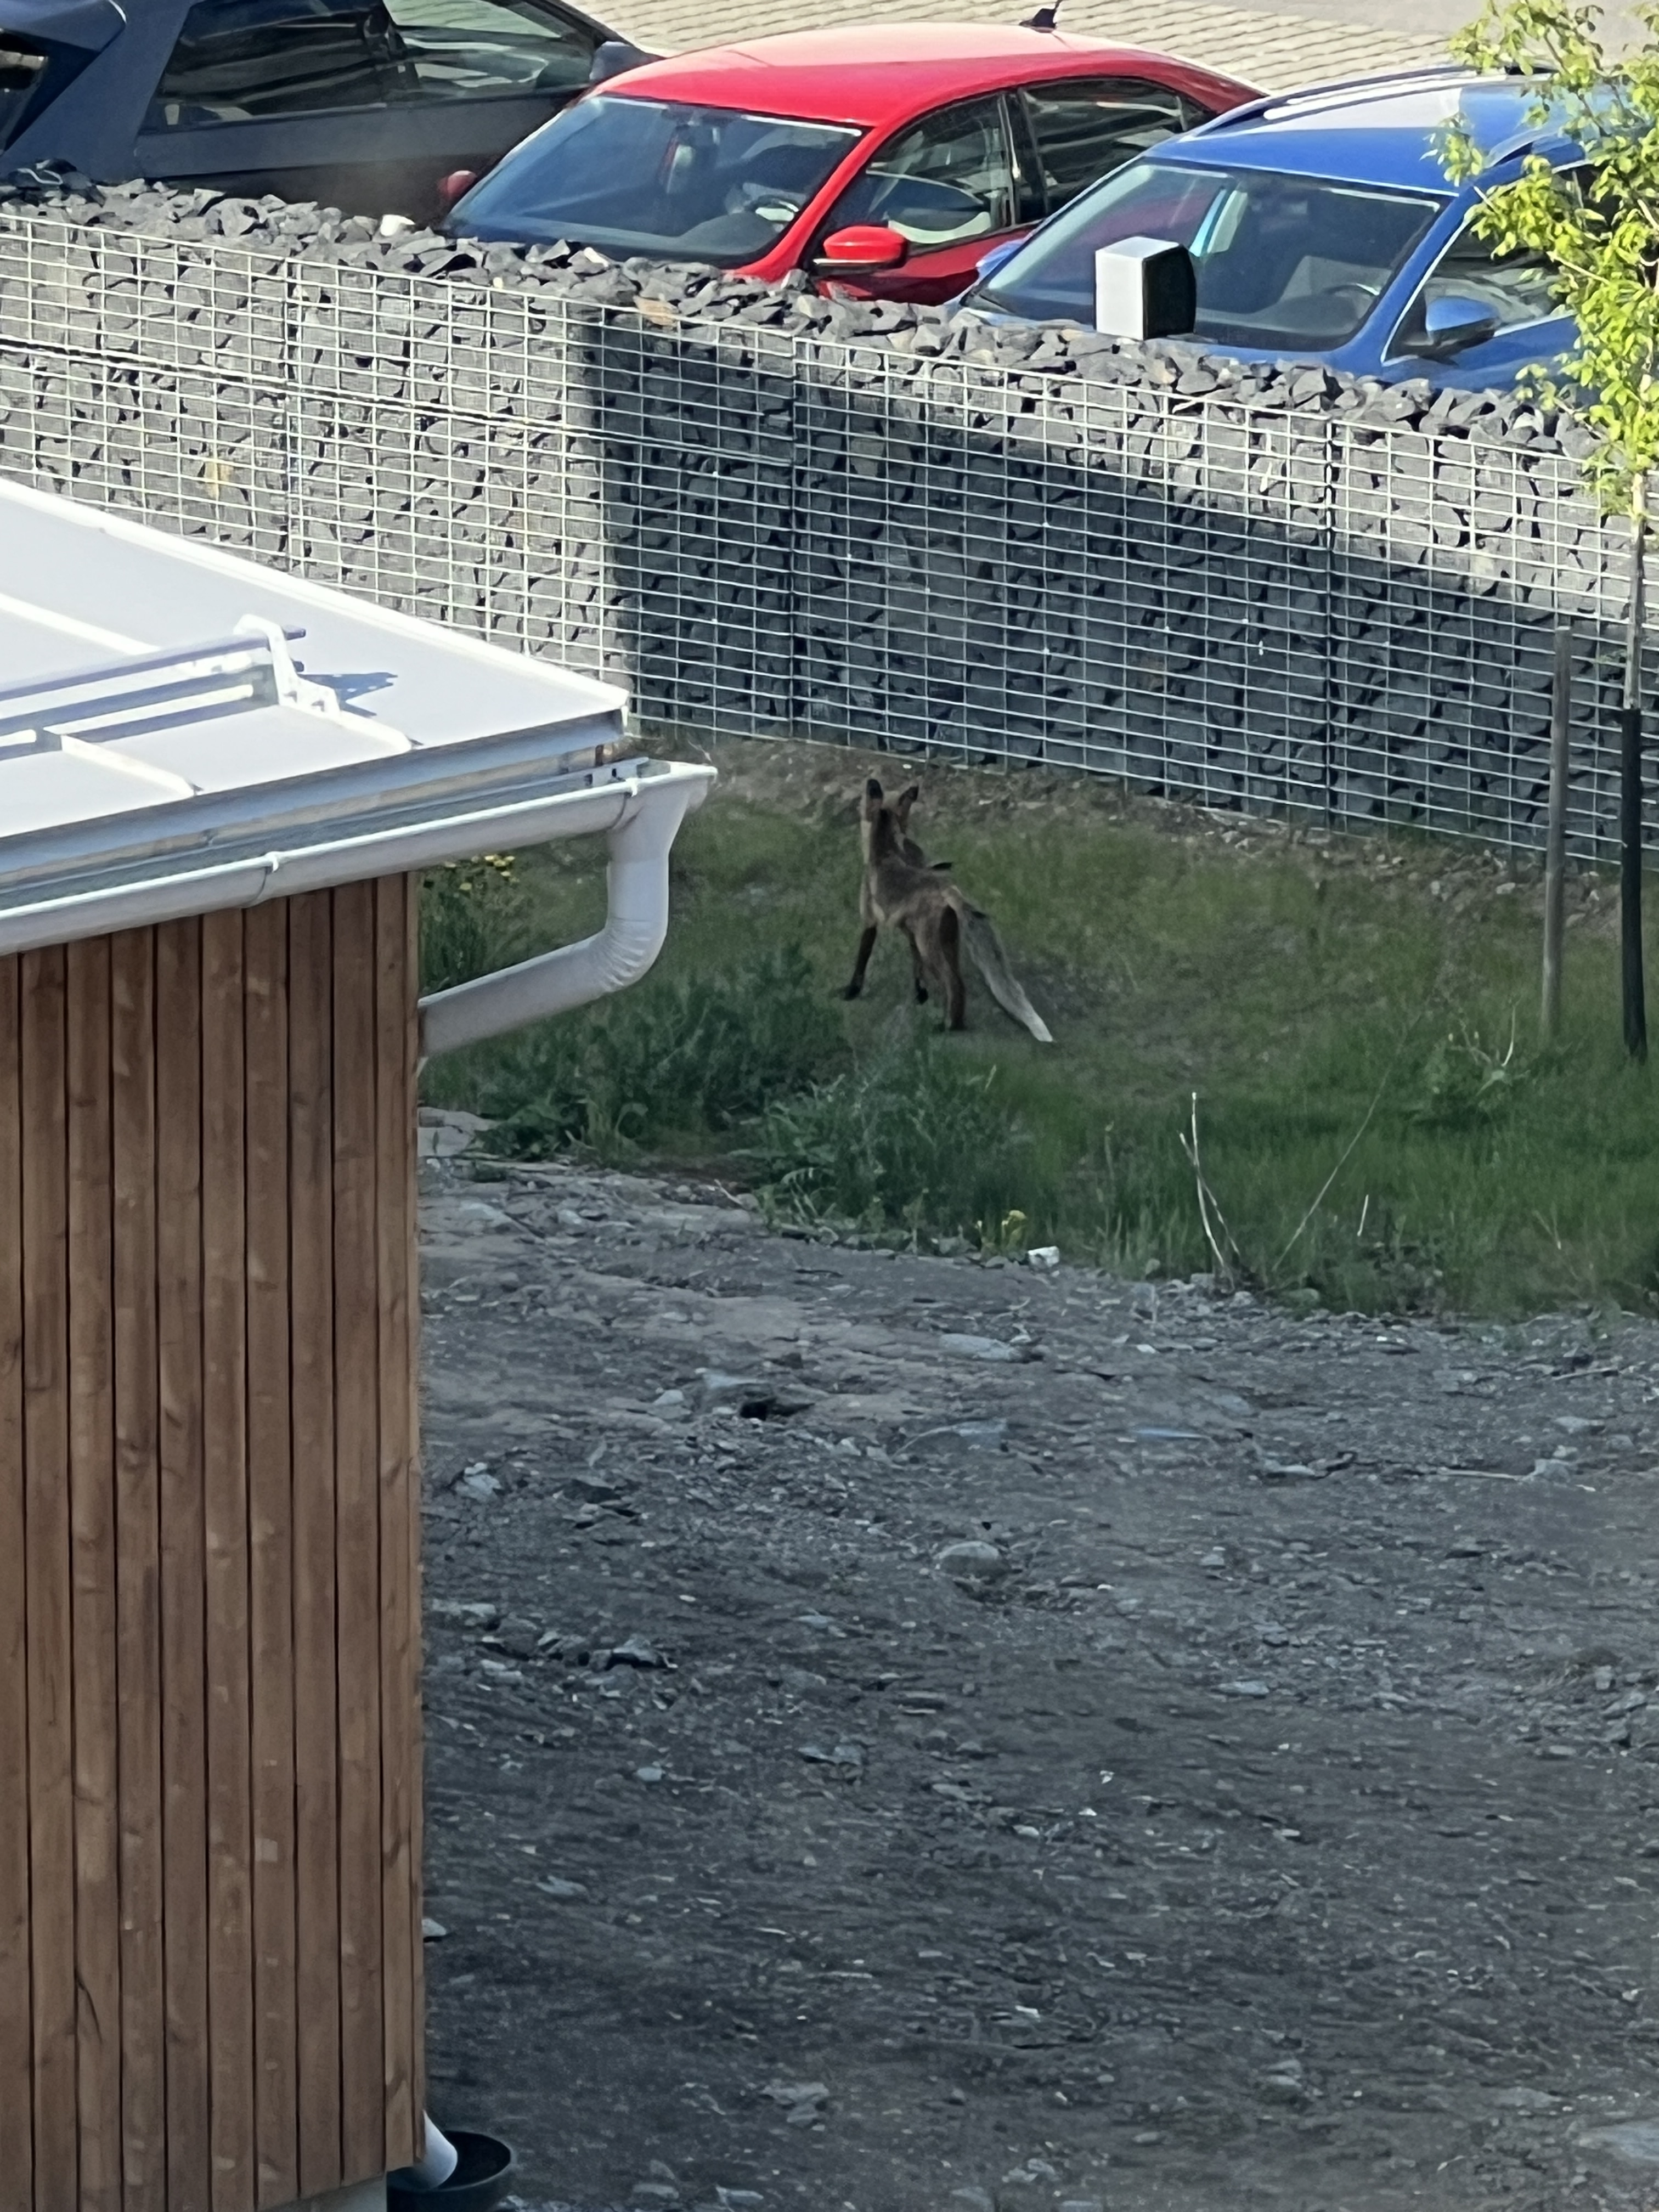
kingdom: Animalia
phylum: Chordata
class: Mammalia
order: Carnivora
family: Canidae
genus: Vulpes
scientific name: Vulpes vulpes
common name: Red fox
